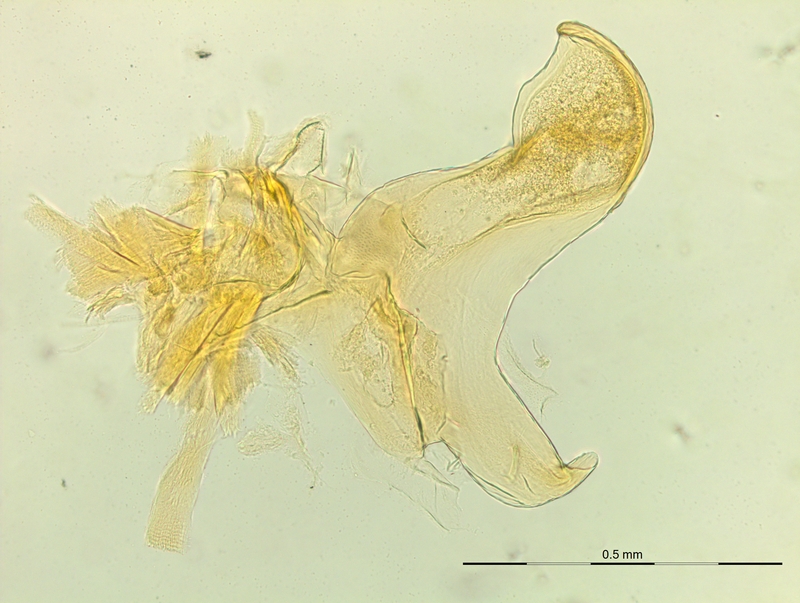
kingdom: Animalia
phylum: Arthropoda
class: Diplopoda
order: Chordeumatida
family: Craspedosomatidae
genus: Macheiriophoron
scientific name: Macheiriophoron alemannicum
